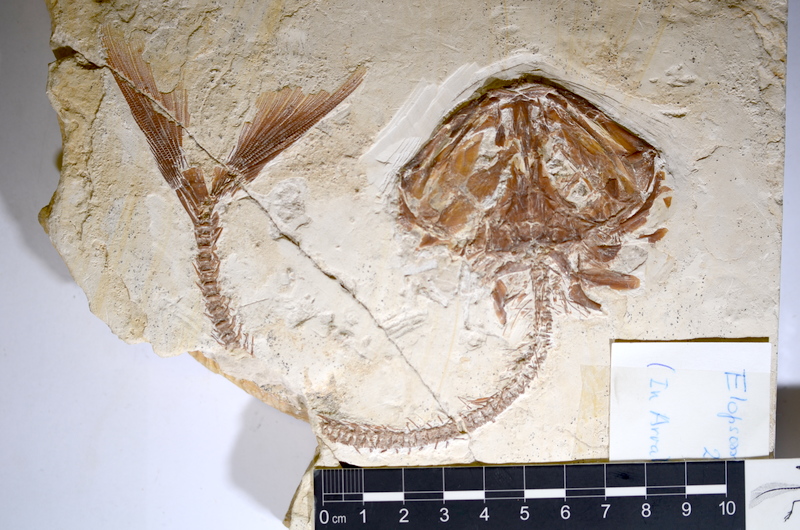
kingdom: Animalia
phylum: Chordata
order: Elopiformes
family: Elopidae
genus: Elopsomolos
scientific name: Elopsomolos
